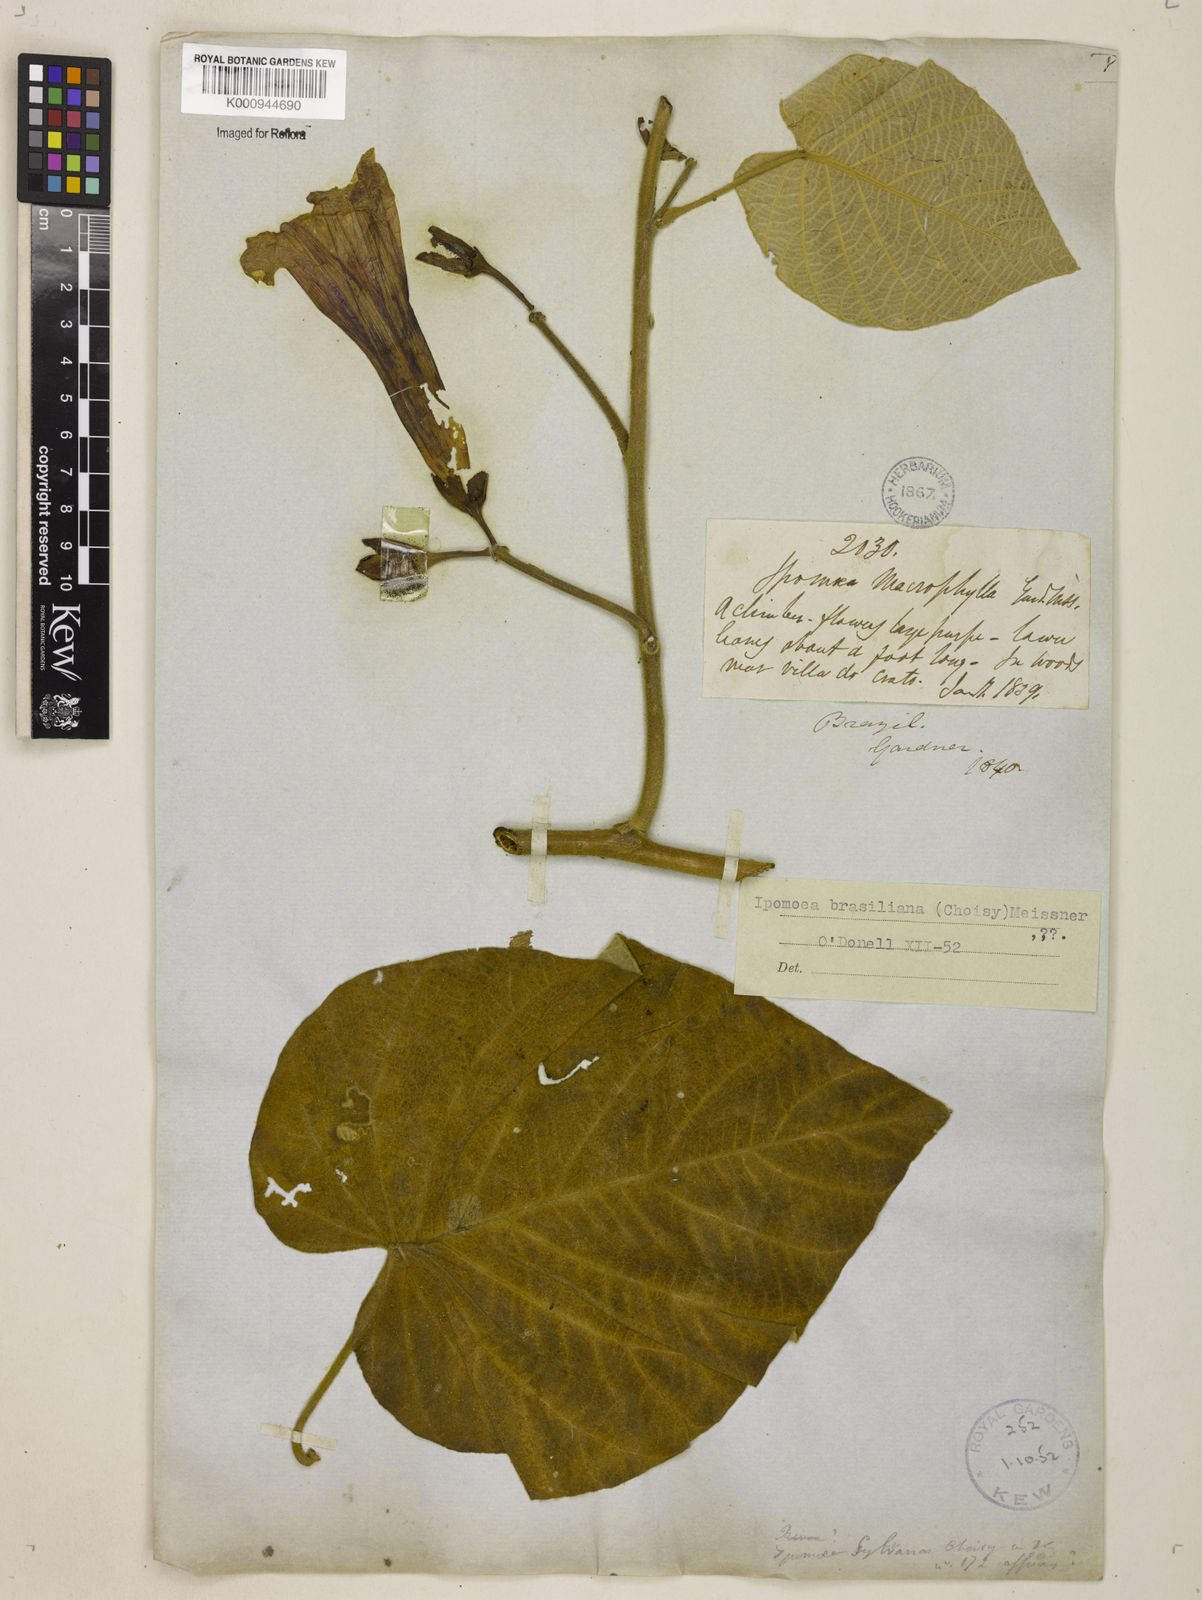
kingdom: Plantae
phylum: Tracheophyta
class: Magnoliopsida
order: Solanales
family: Convolvulaceae
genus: Ipomoea
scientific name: Ipomoea brasiliana
